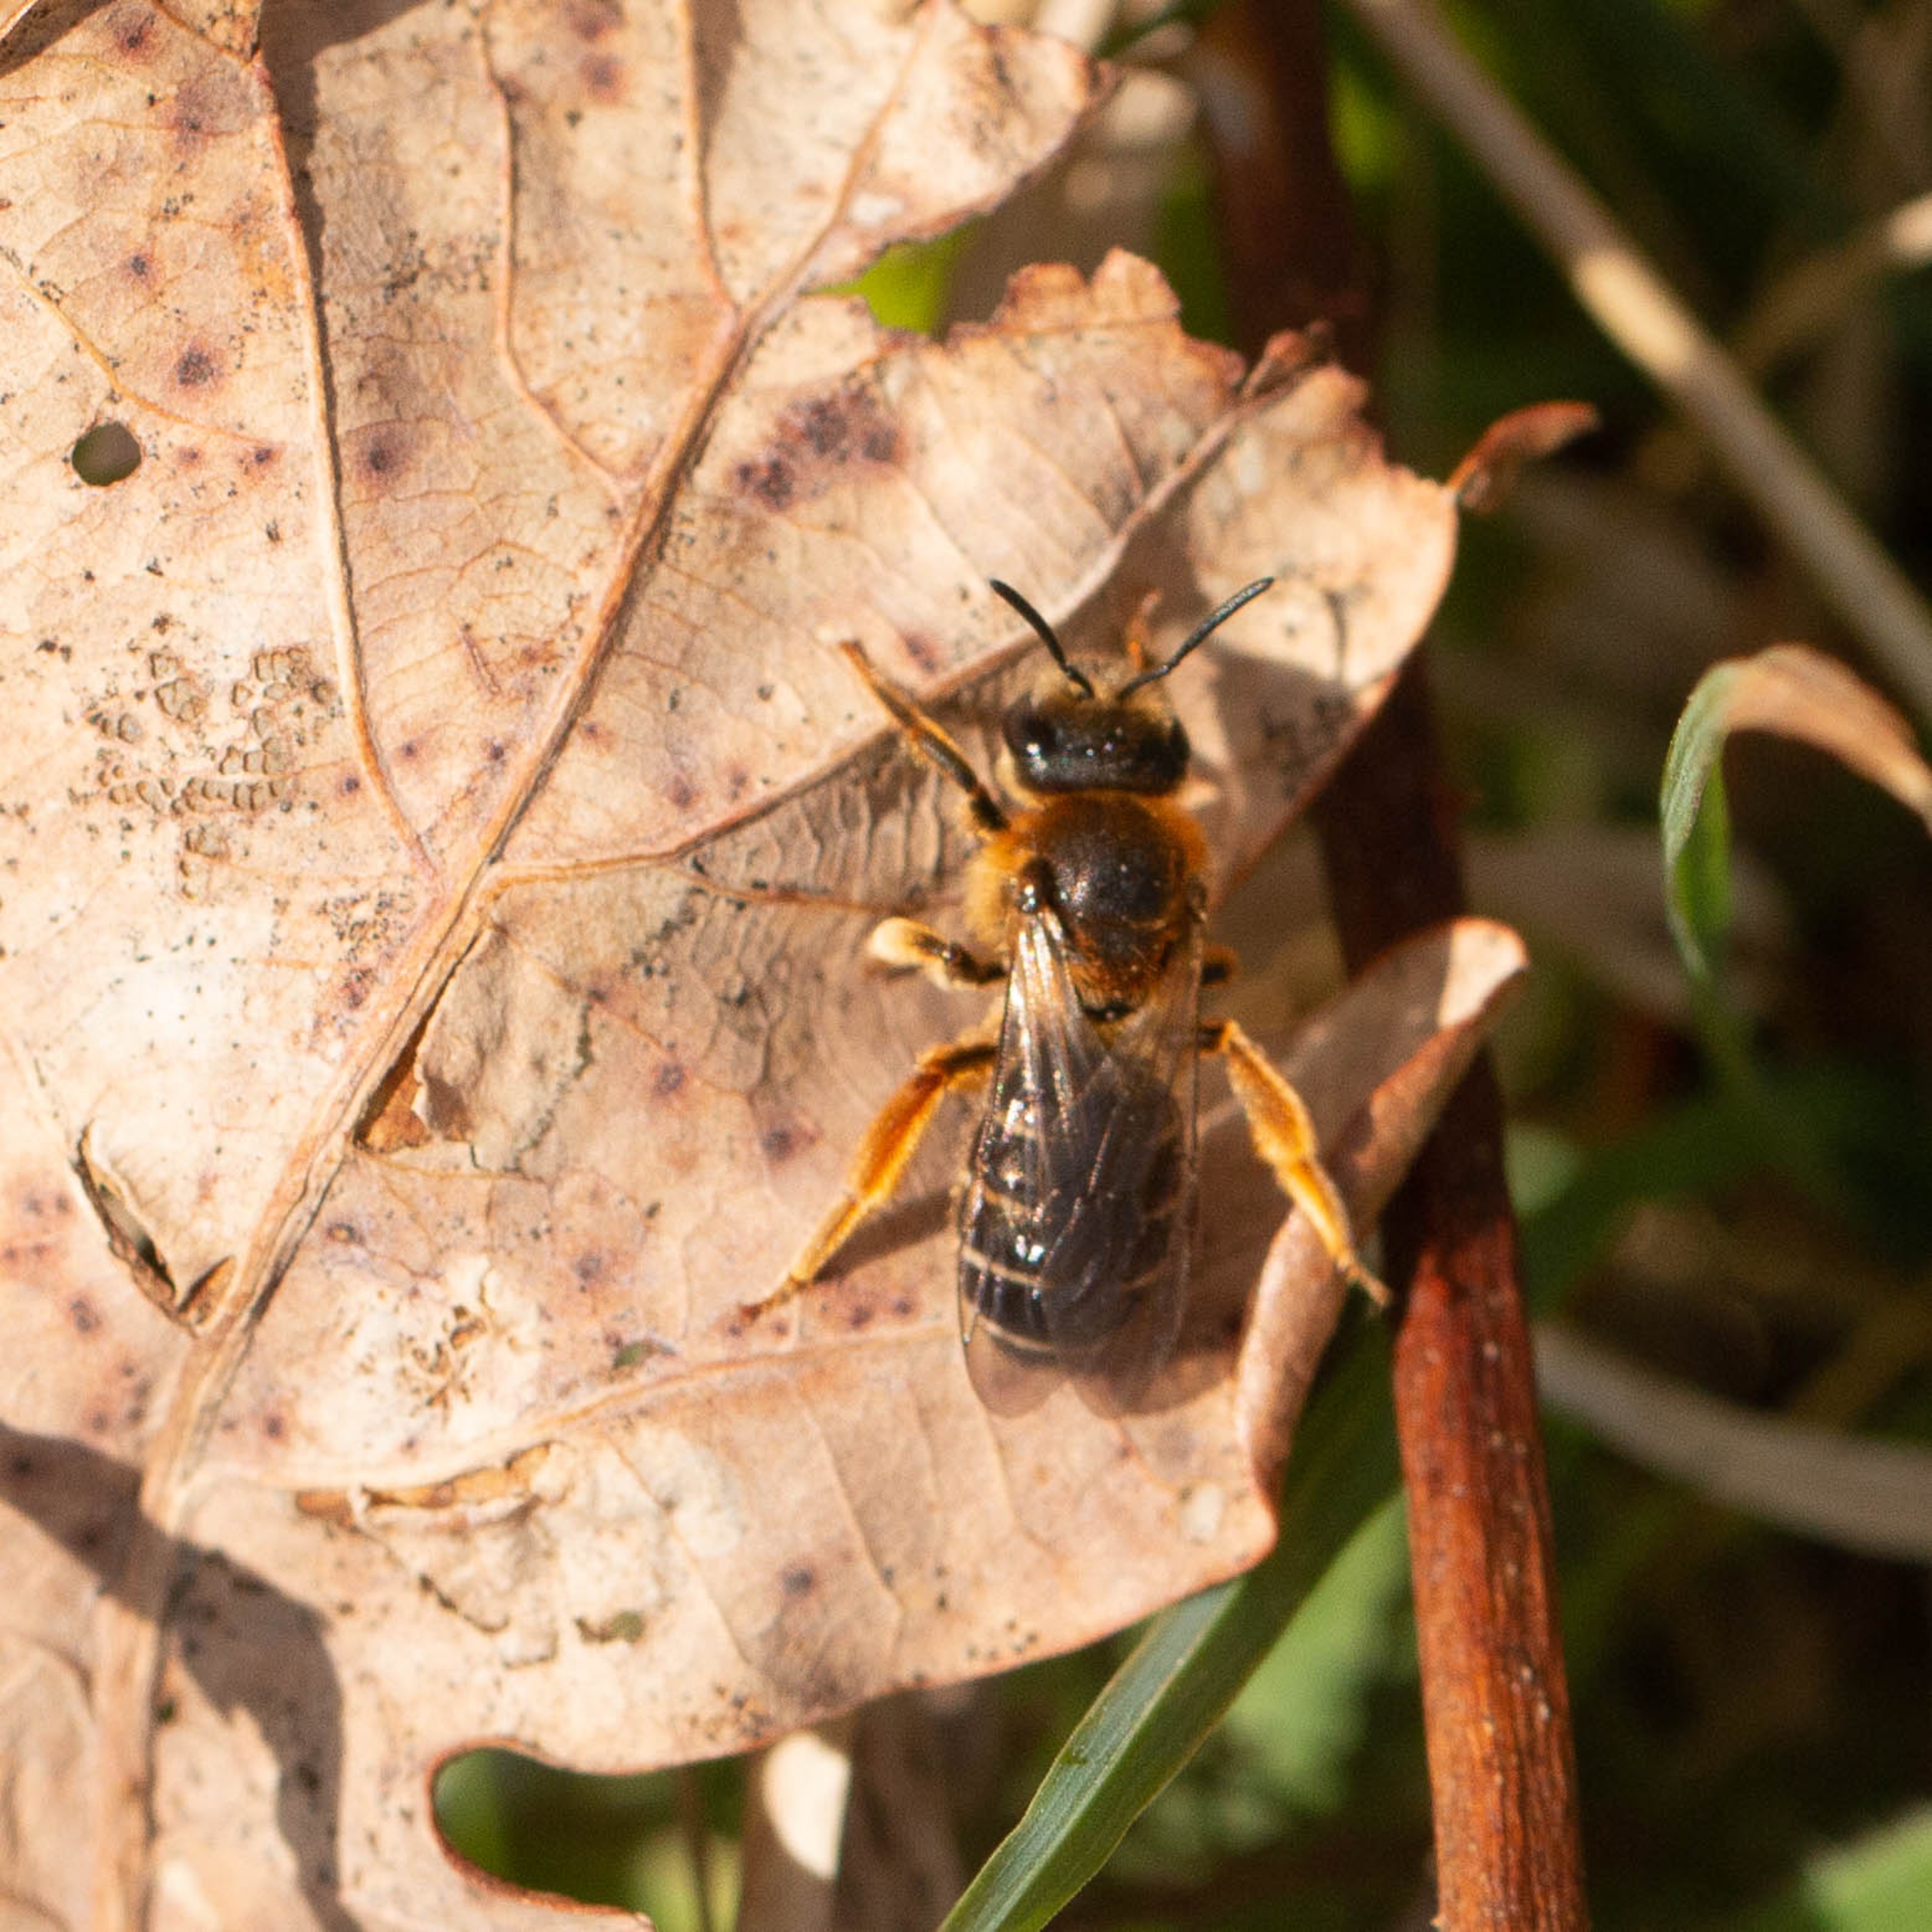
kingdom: Animalia
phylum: Arthropoda
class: Insecta
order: Hymenoptera
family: Halictidae
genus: Halictus
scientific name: Halictus rubicundus
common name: Skovvejbi
